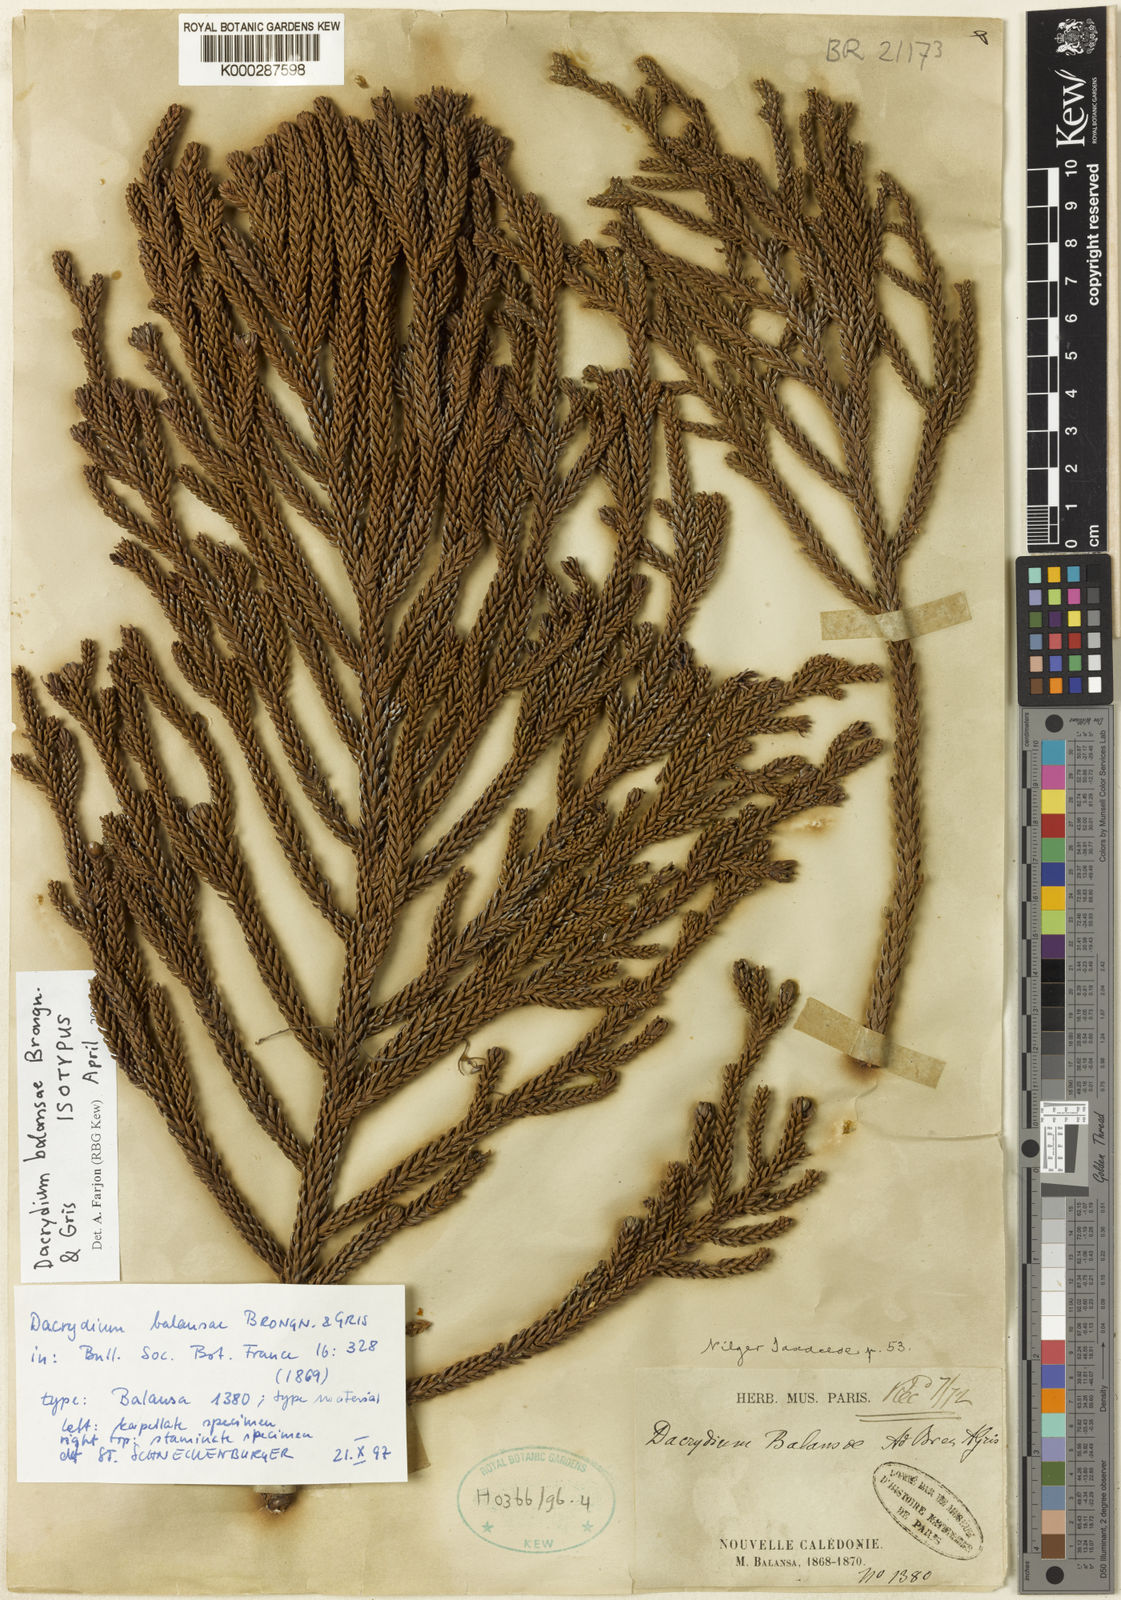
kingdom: Plantae
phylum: Tracheophyta
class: Pinopsida
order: Pinales
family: Podocarpaceae
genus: Dacrydium
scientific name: Dacrydium balansae
